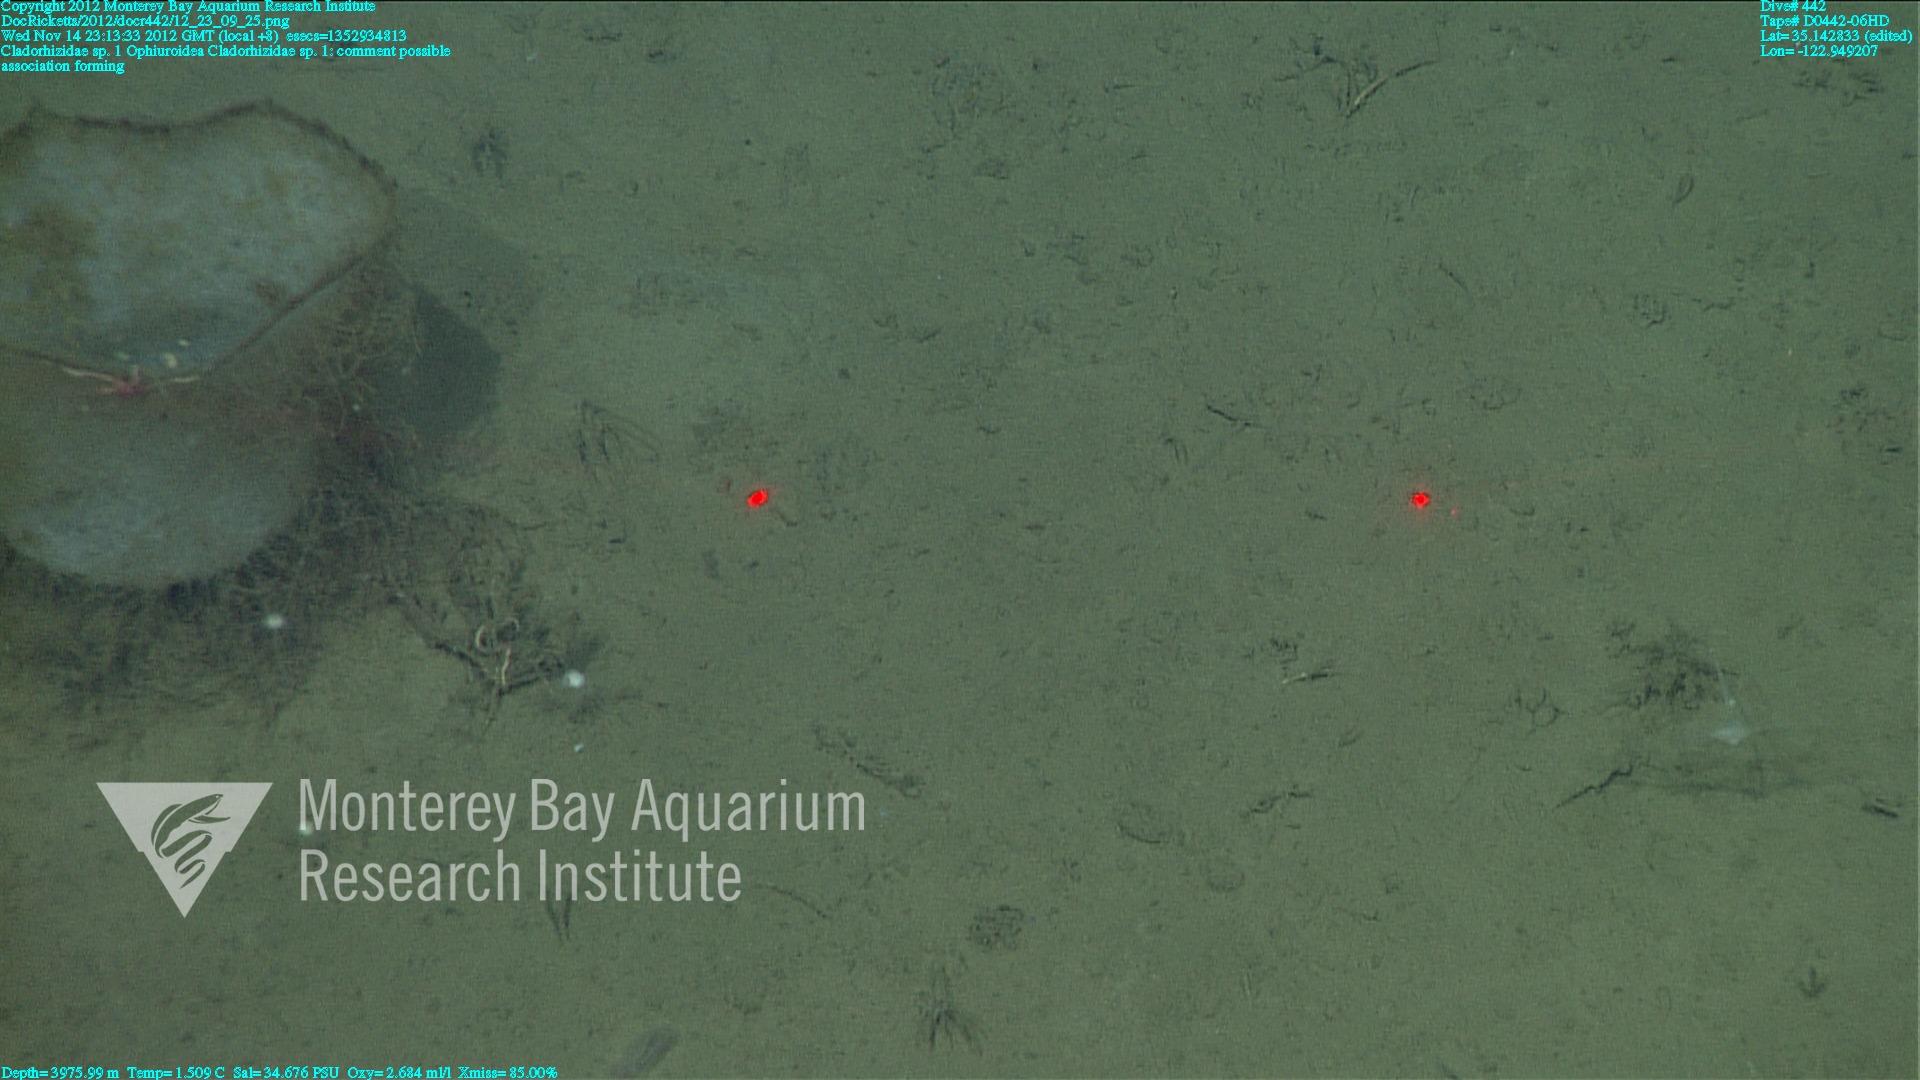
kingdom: Animalia
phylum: Porifera
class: Demospongiae
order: Poecilosclerida
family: Cladorhizidae
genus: Cladorhiza
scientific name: Cladorhiza
